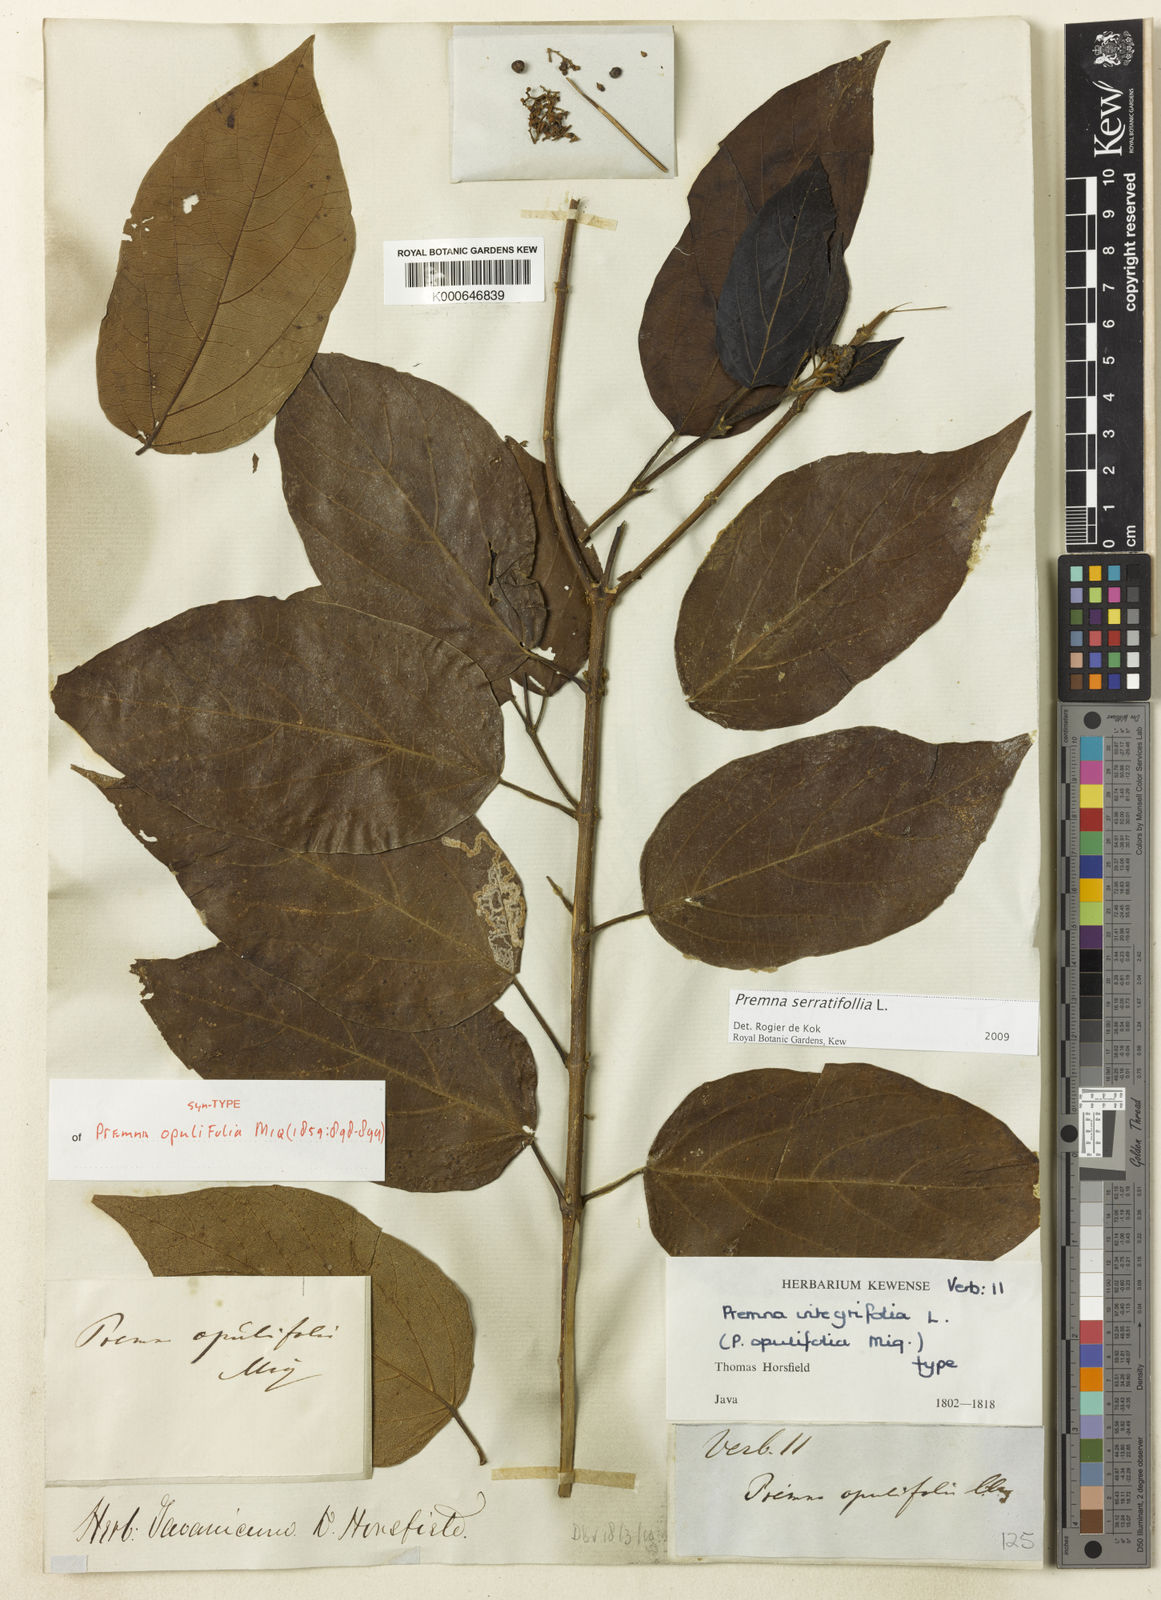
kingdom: Plantae
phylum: Tracheophyta
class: Magnoliopsida
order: Lamiales
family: Lamiaceae
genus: Premna
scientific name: Premna serratifolia
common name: Bastard guelder
